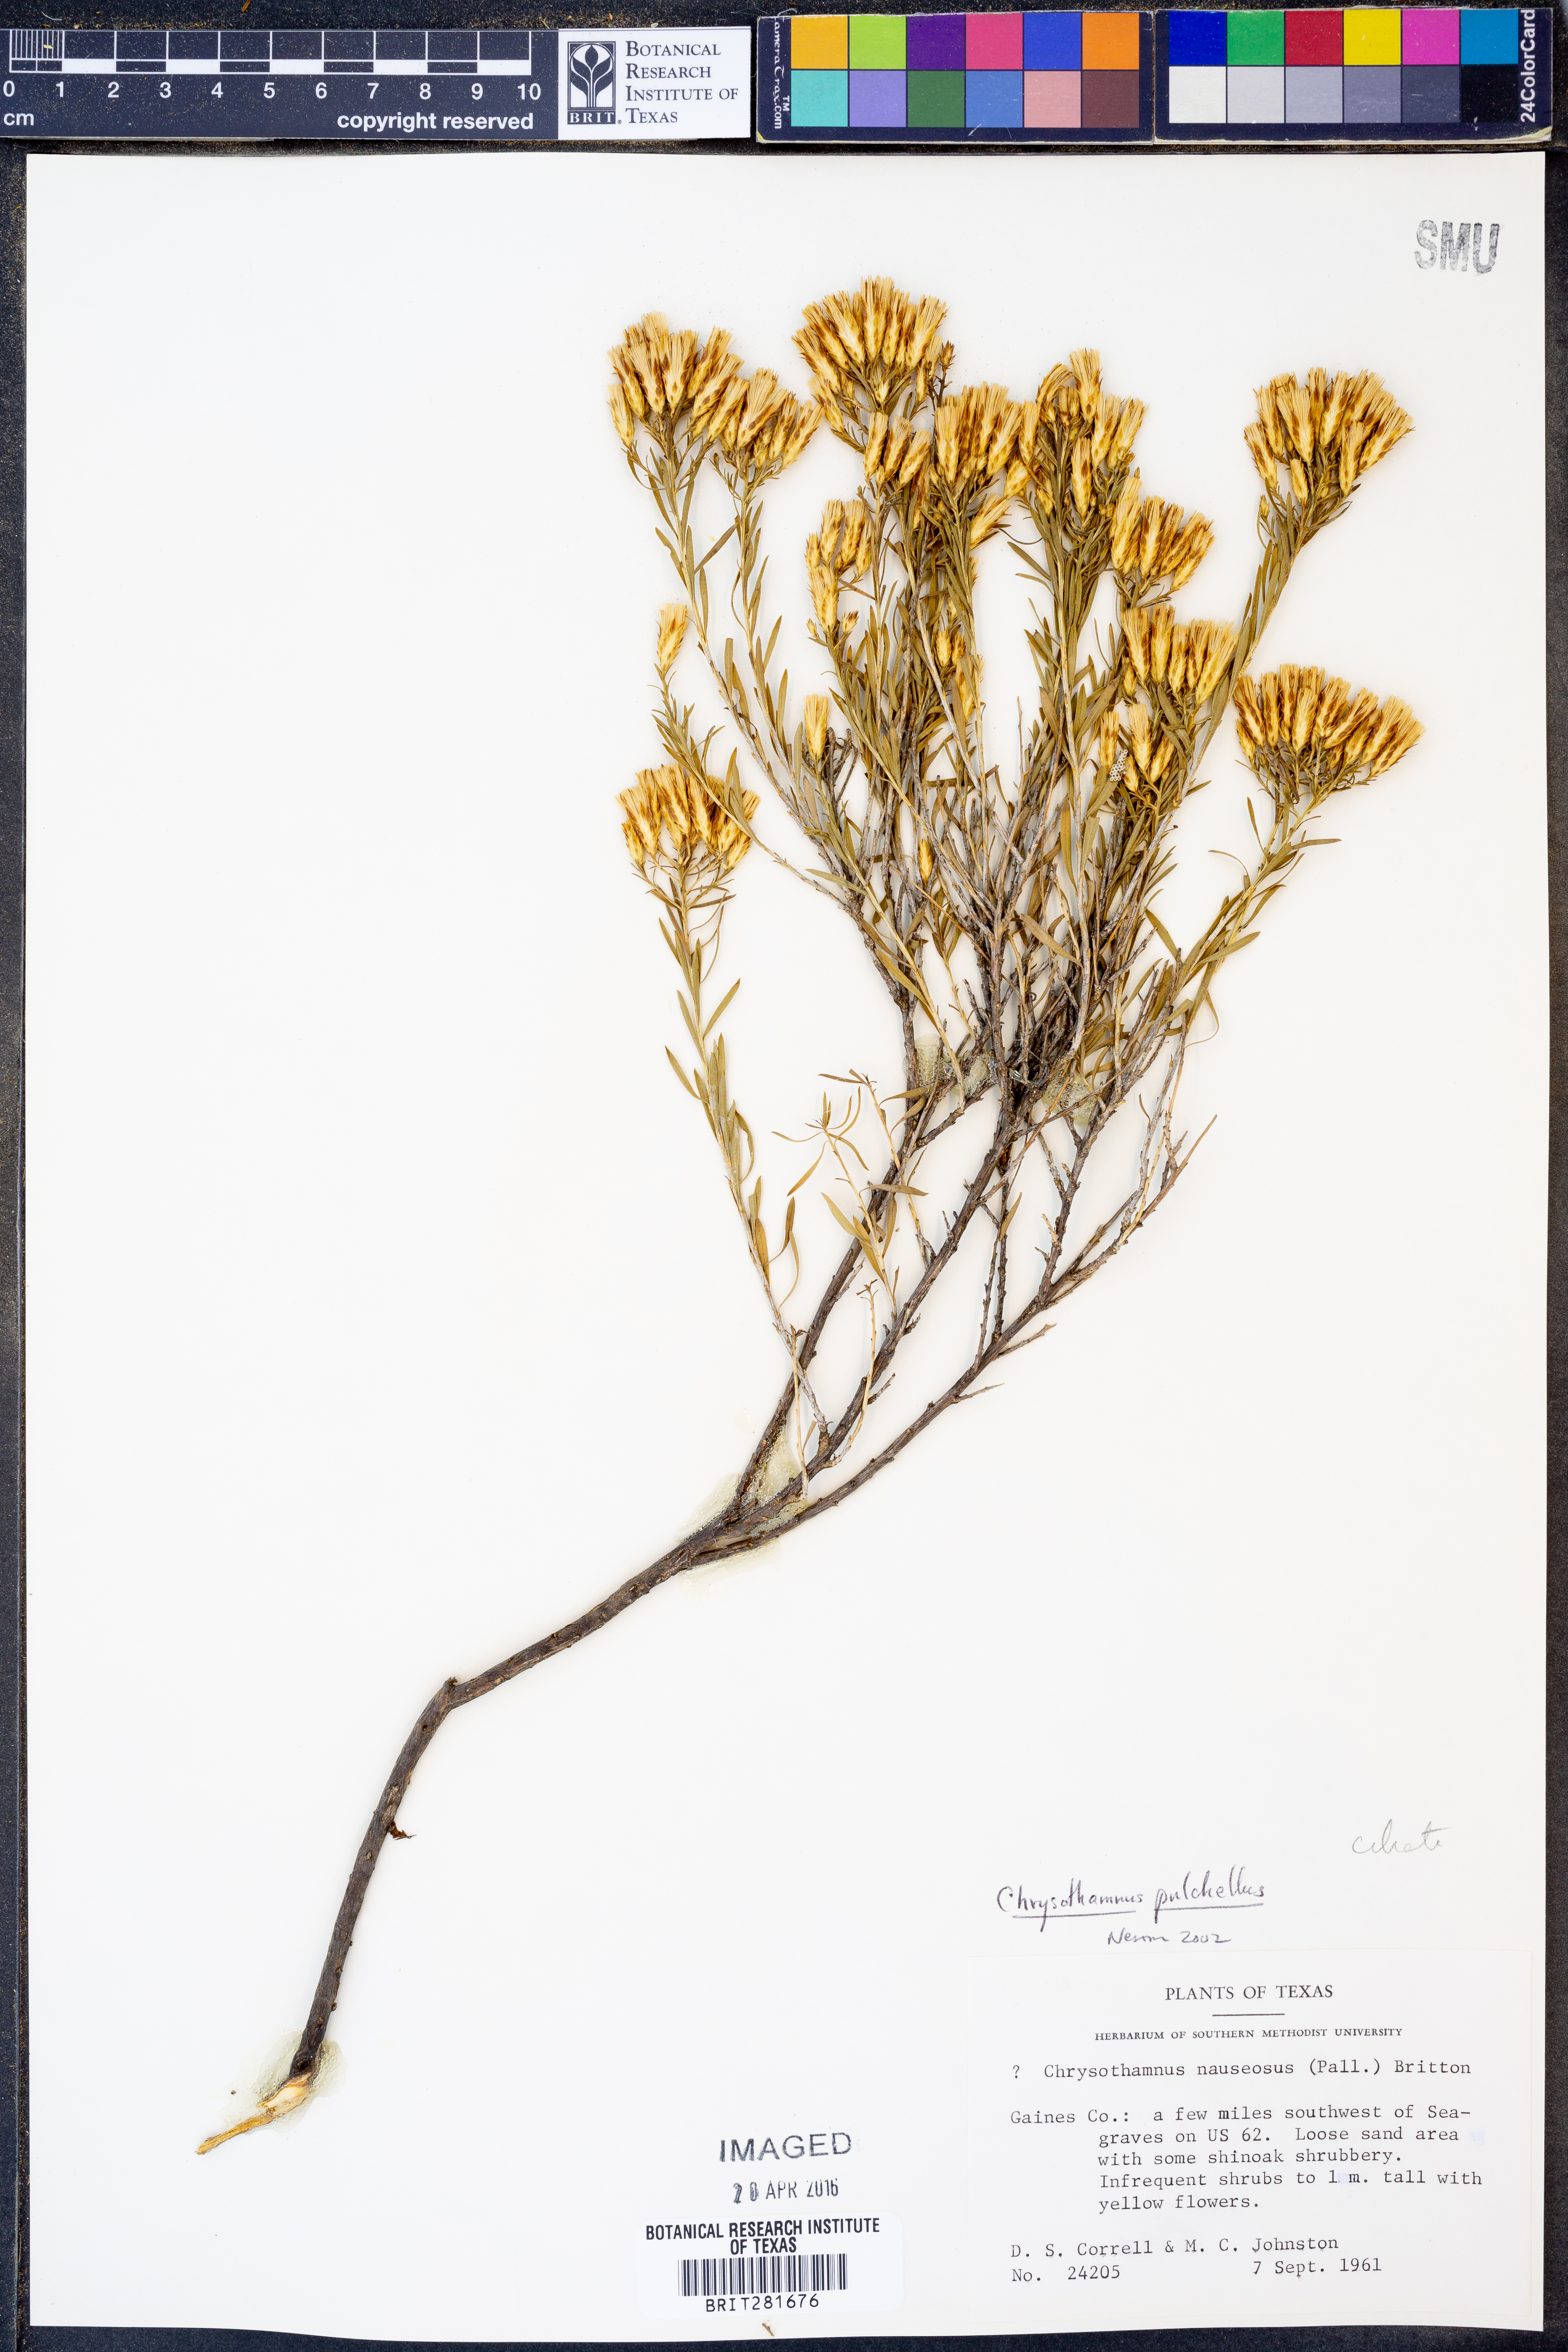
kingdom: Plantae
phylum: Tracheophyta
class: Magnoliopsida
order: Asterales
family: Asteraceae
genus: Lorandersonia
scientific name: Lorandersonia pulchella
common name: Southwestern rabbitbrush
